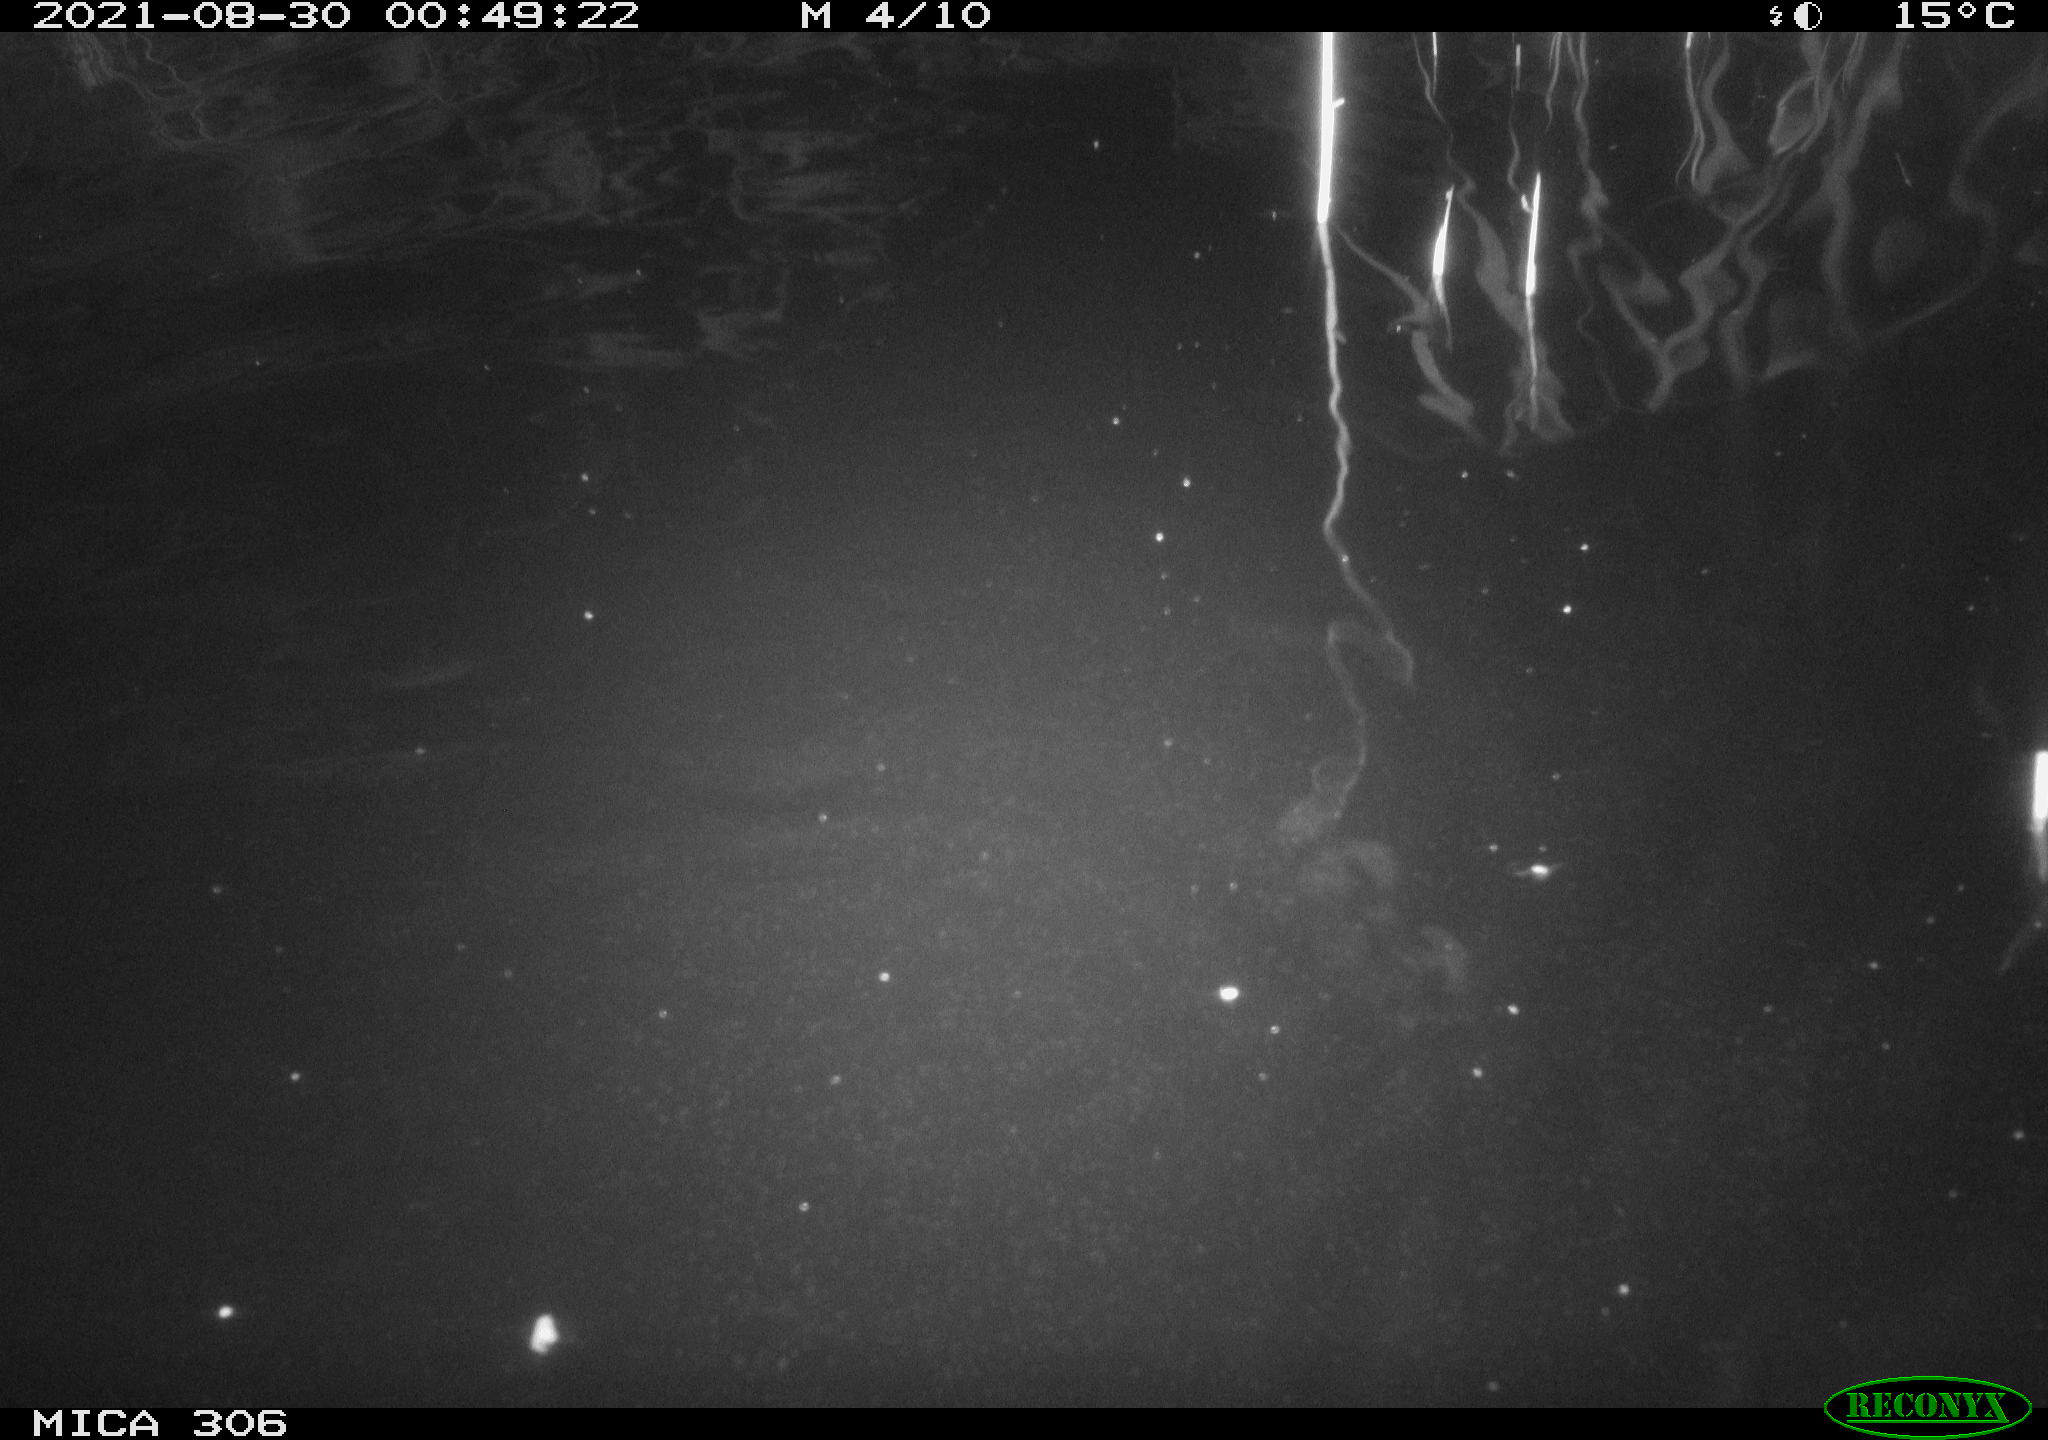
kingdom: Animalia
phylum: Chordata
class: Mammalia
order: Rodentia
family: Cricetidae
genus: Ondatra
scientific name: Ondatra zibethicus
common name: Muskrat
